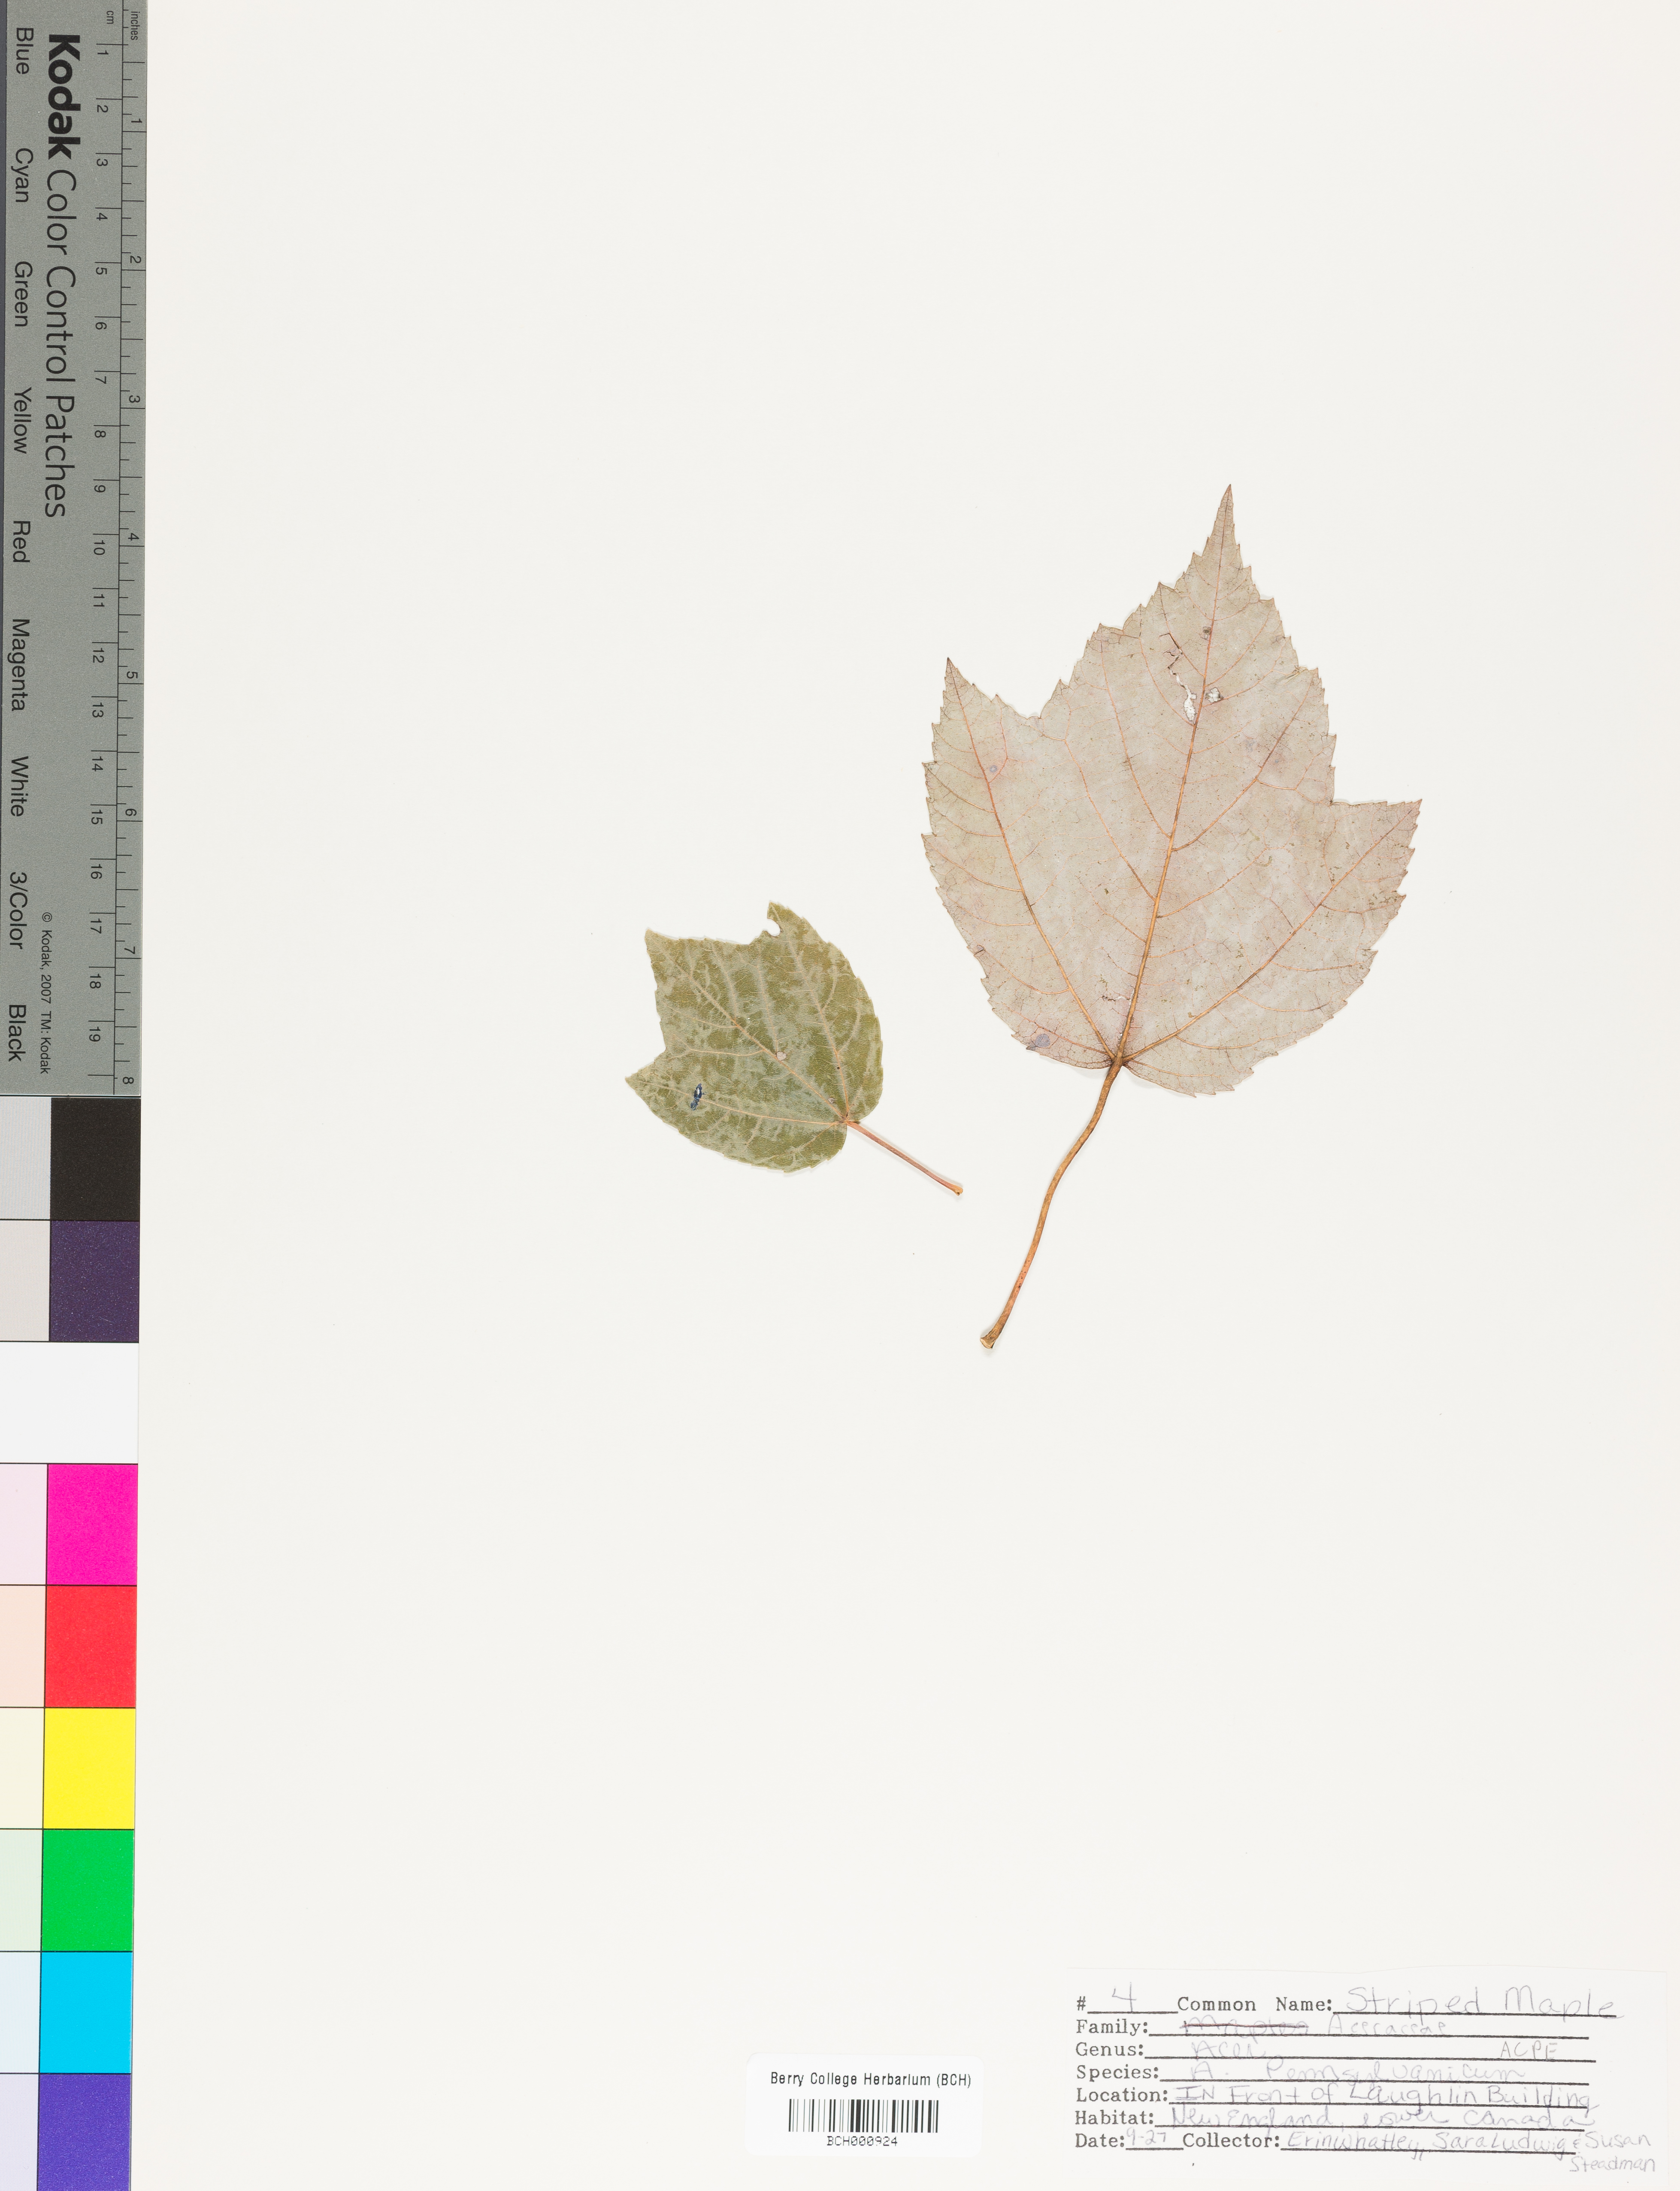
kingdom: Plantae
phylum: Tracheophyta
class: Magnoliopsida
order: Sapindales
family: Sapindaceae
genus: Acer
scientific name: Acer pensylvanicum
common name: Moosewood
